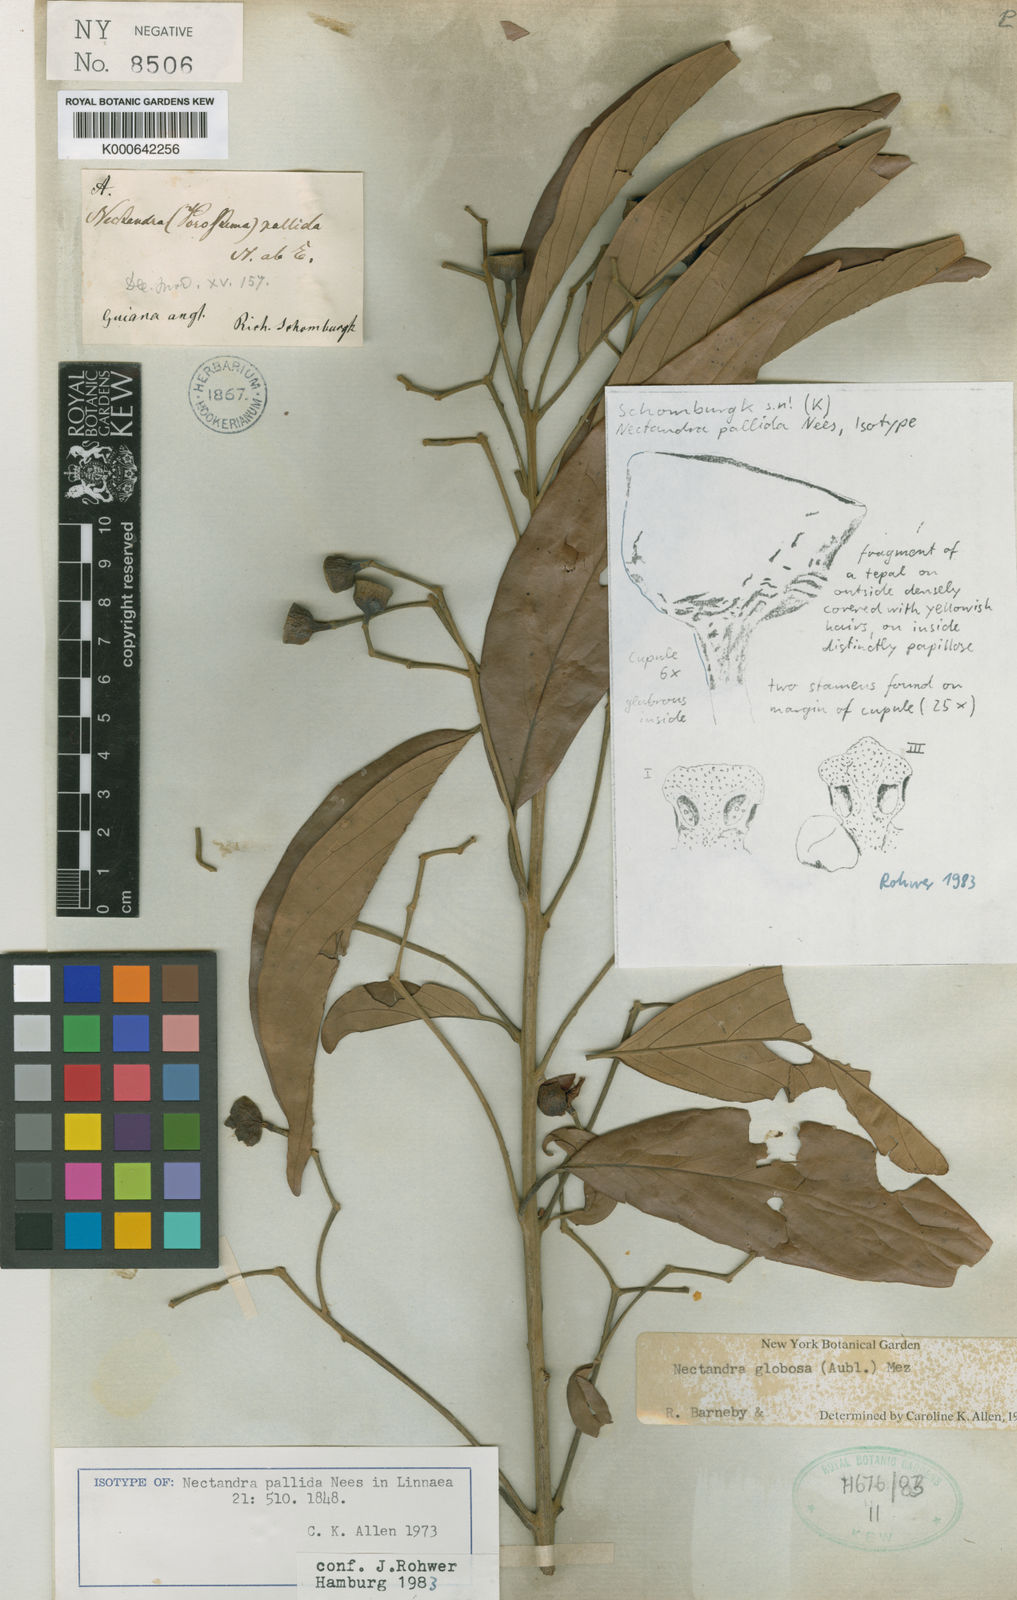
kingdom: Plantae
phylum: Tracheophyta
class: Magnoliopsida
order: Laurales
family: Lauraceae
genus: Nectandra
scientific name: Nectandra amazonum
